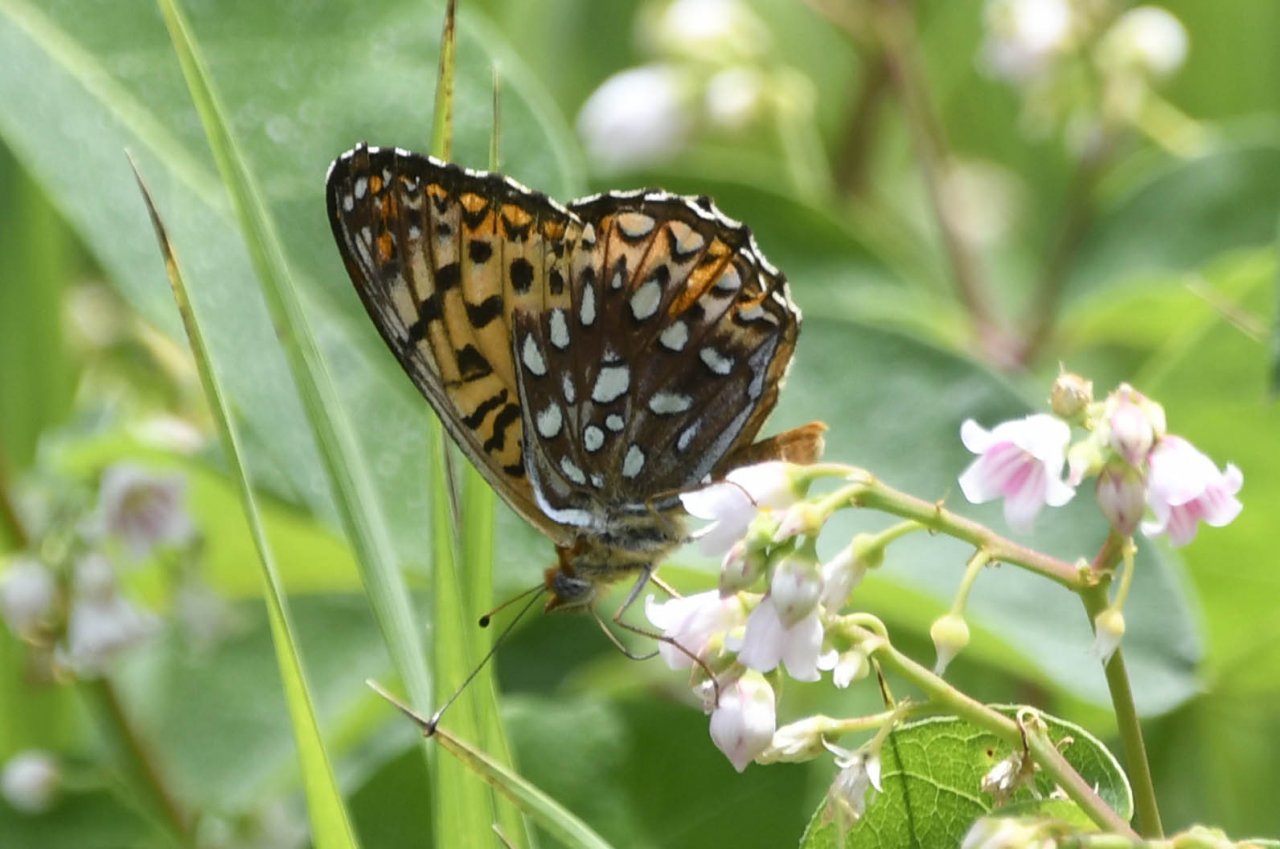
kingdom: Animalia
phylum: Arthropoda
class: Insecta
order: Lepidoptera
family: Nymphalidae
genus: Speyeria
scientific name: Speyeria atlantis
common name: Atlantis Fritillary
